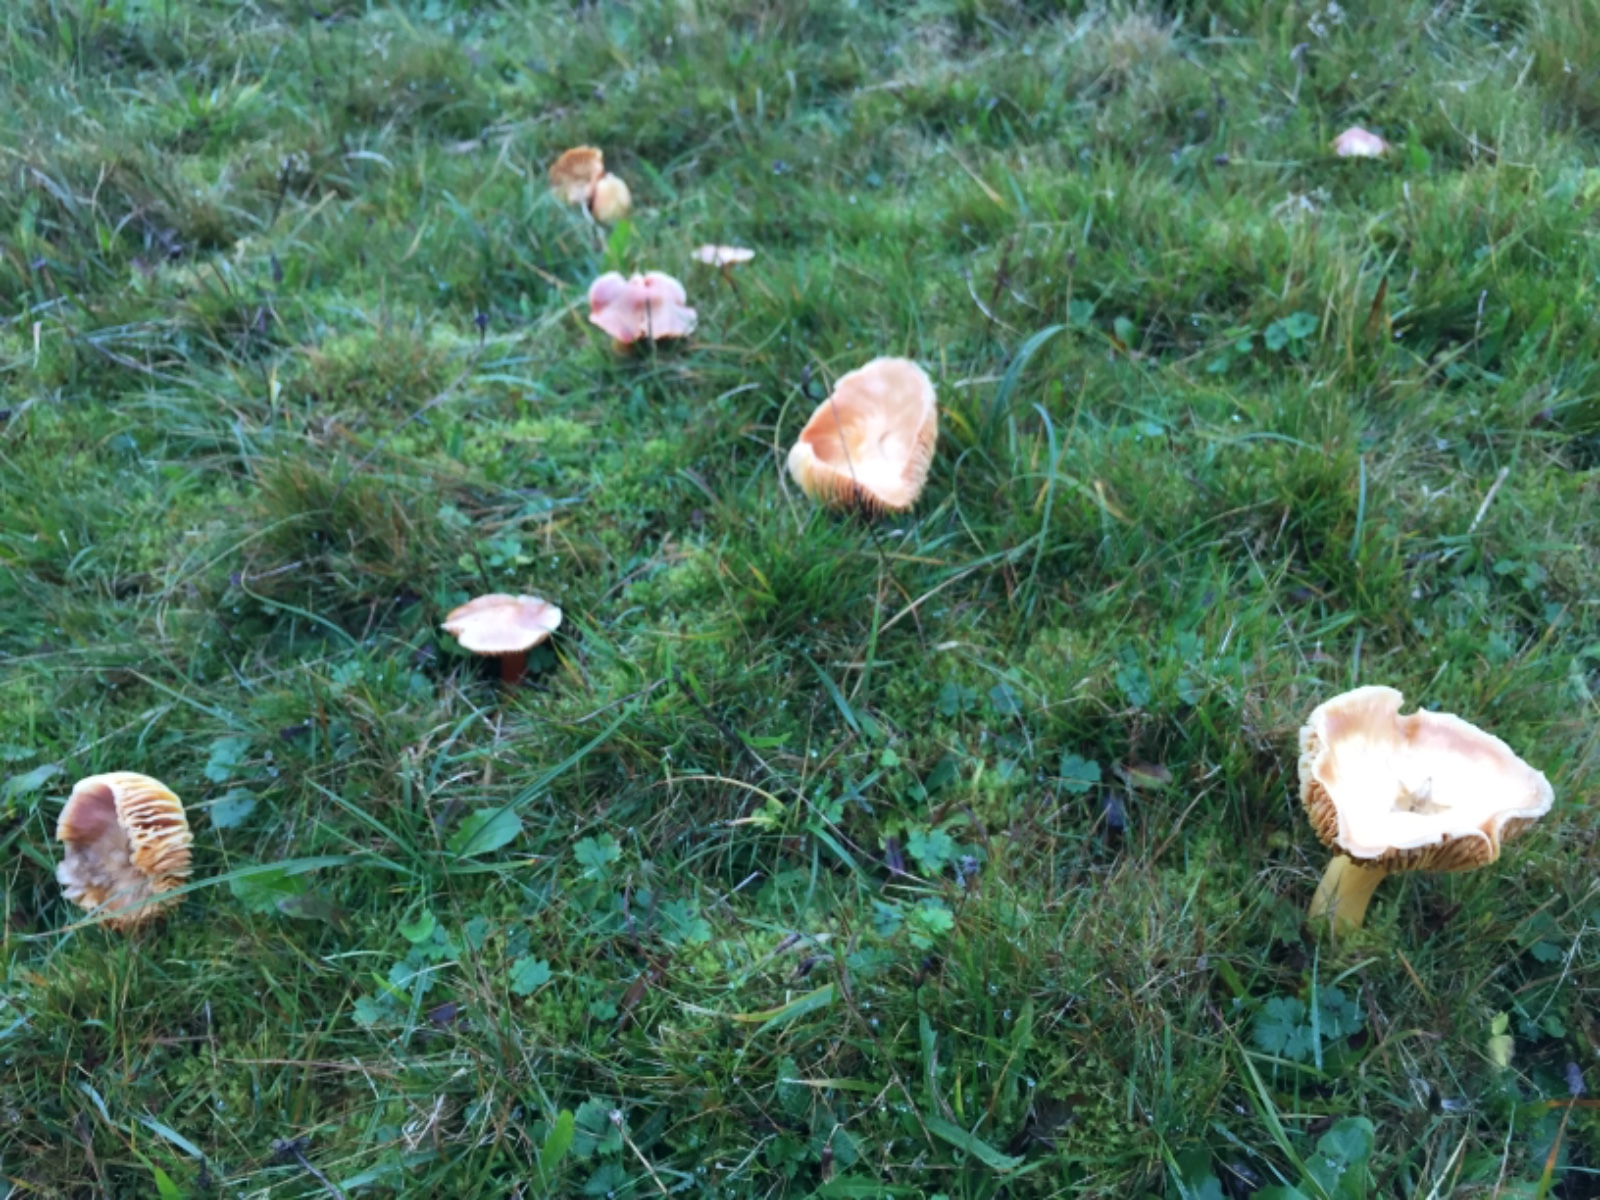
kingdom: Fungi
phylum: Basidiomycota
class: Agaricomycetes
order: Agaricales
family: Hygrophoraceae
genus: Hygrocybe
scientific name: Hygrocybe punicea
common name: skarlagen-vokshat
